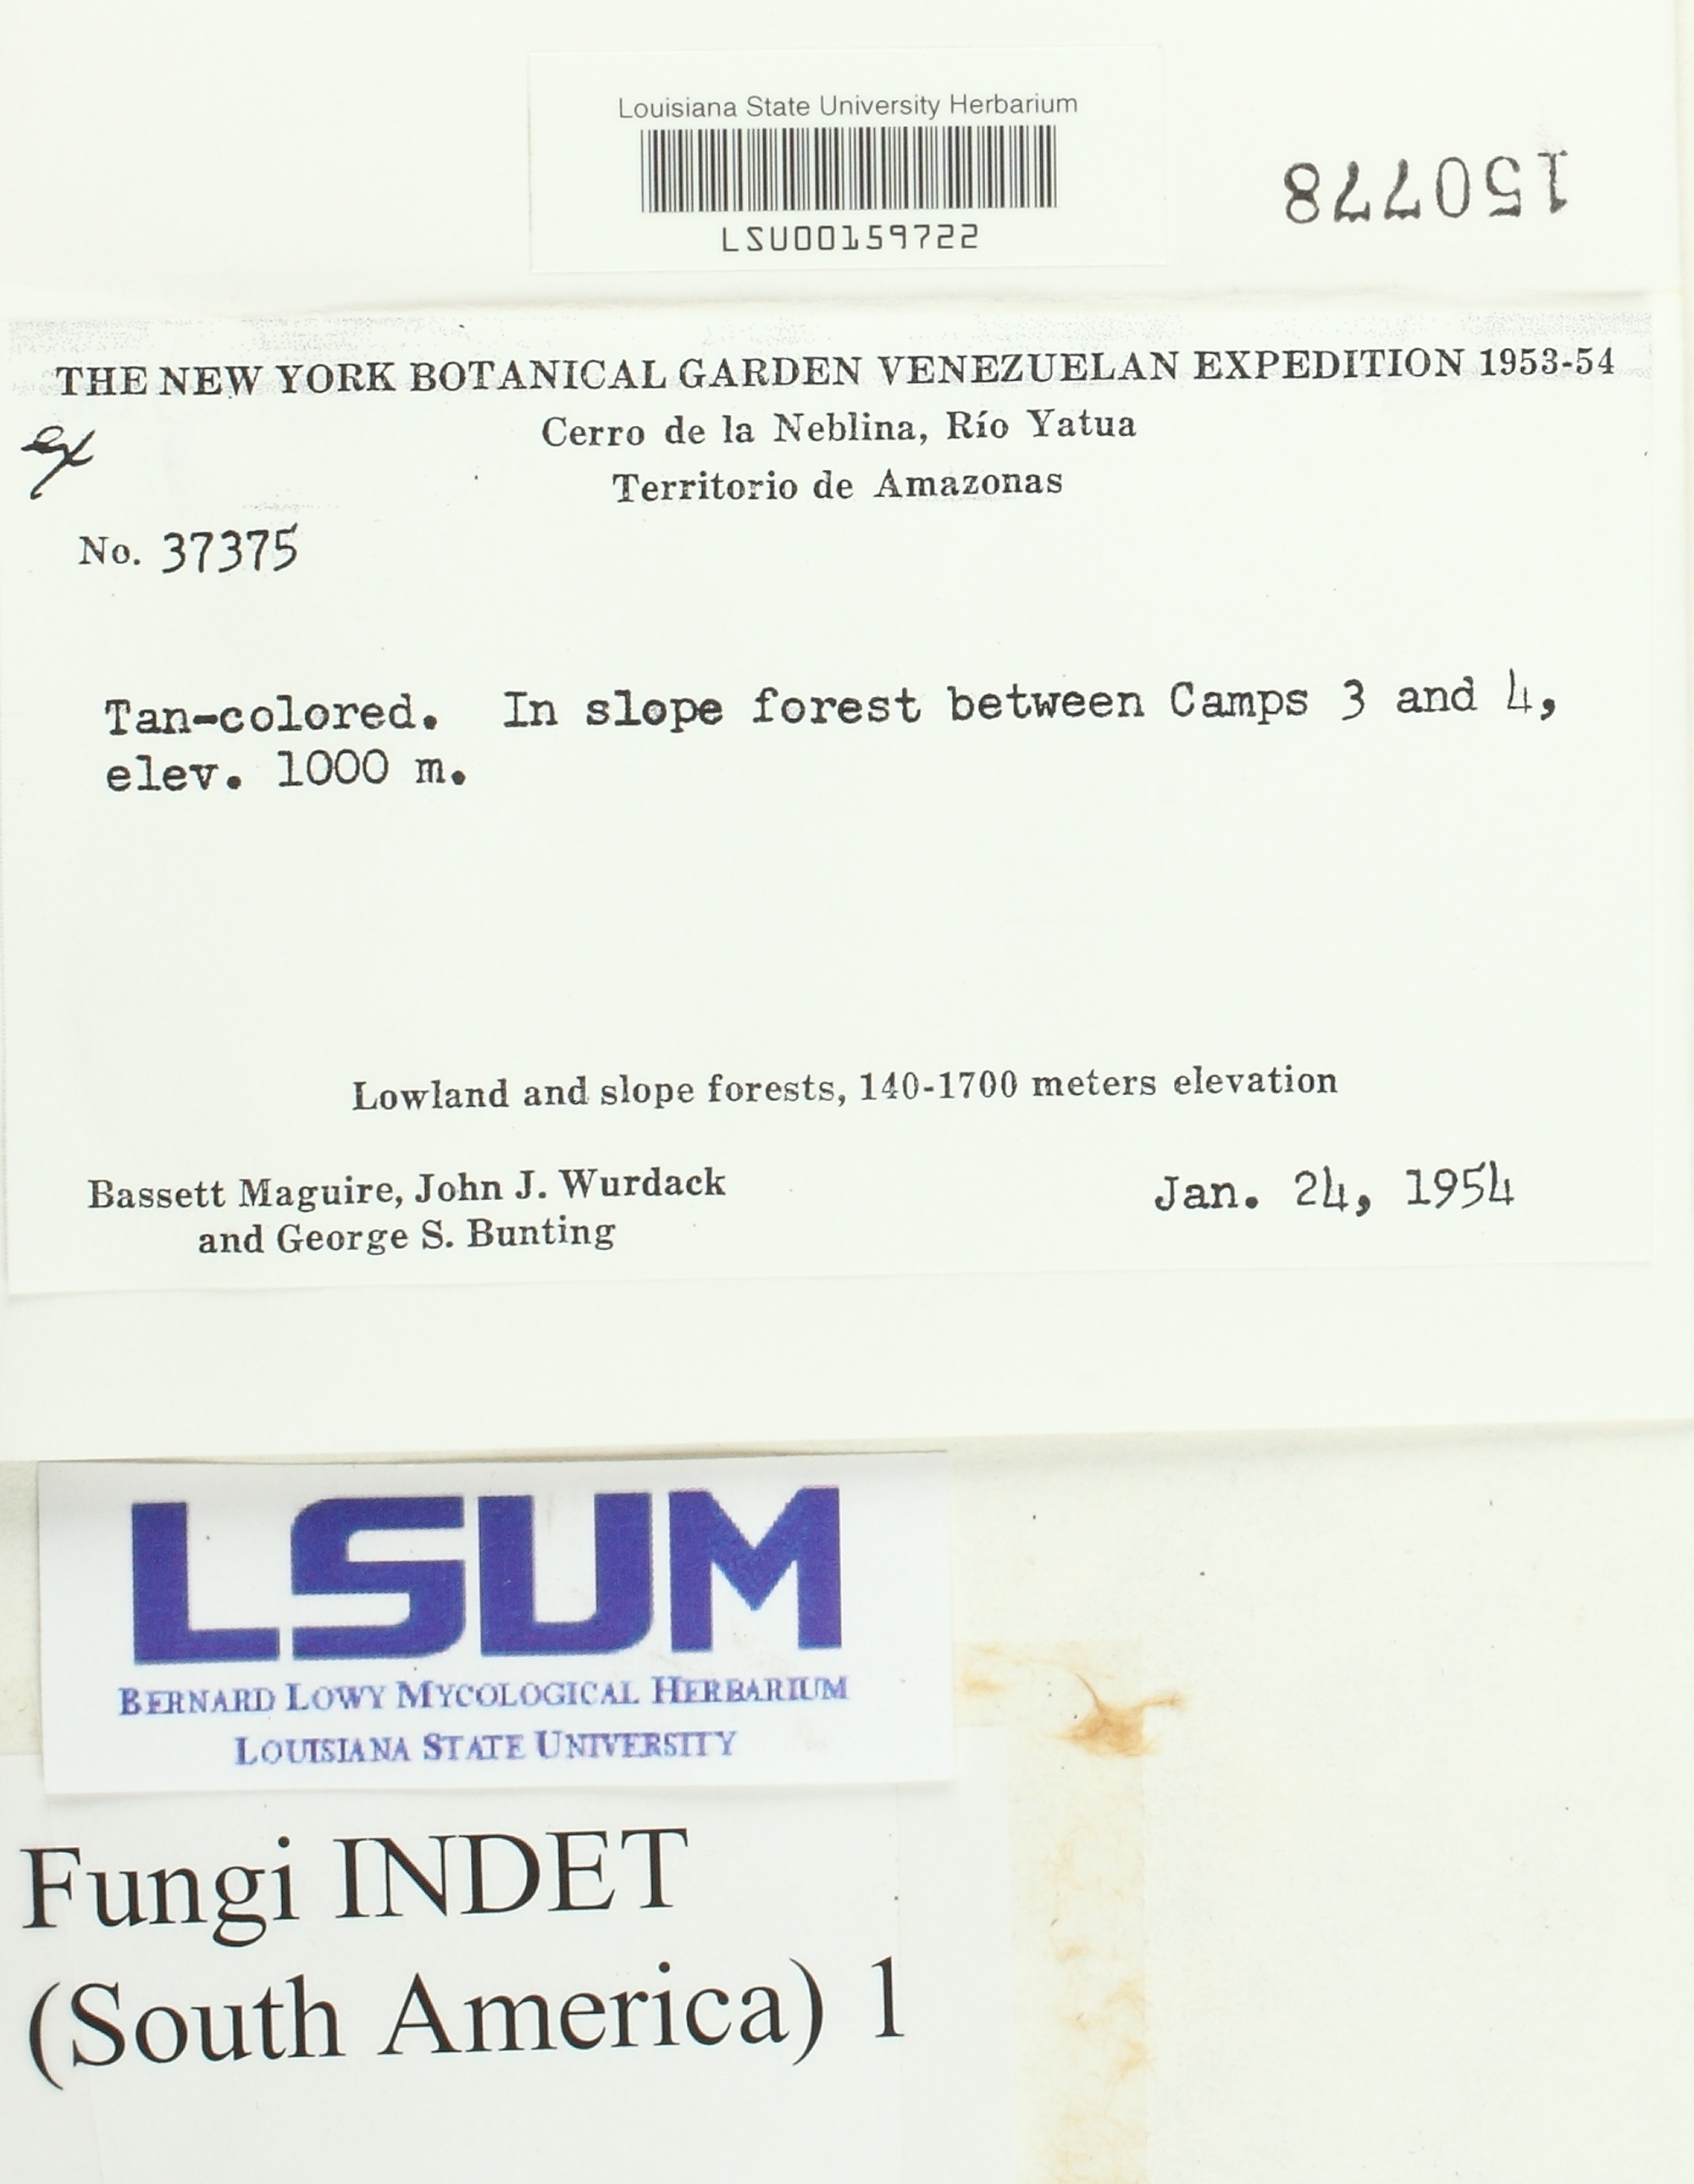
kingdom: Fungi
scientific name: Fungi
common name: Fungi
